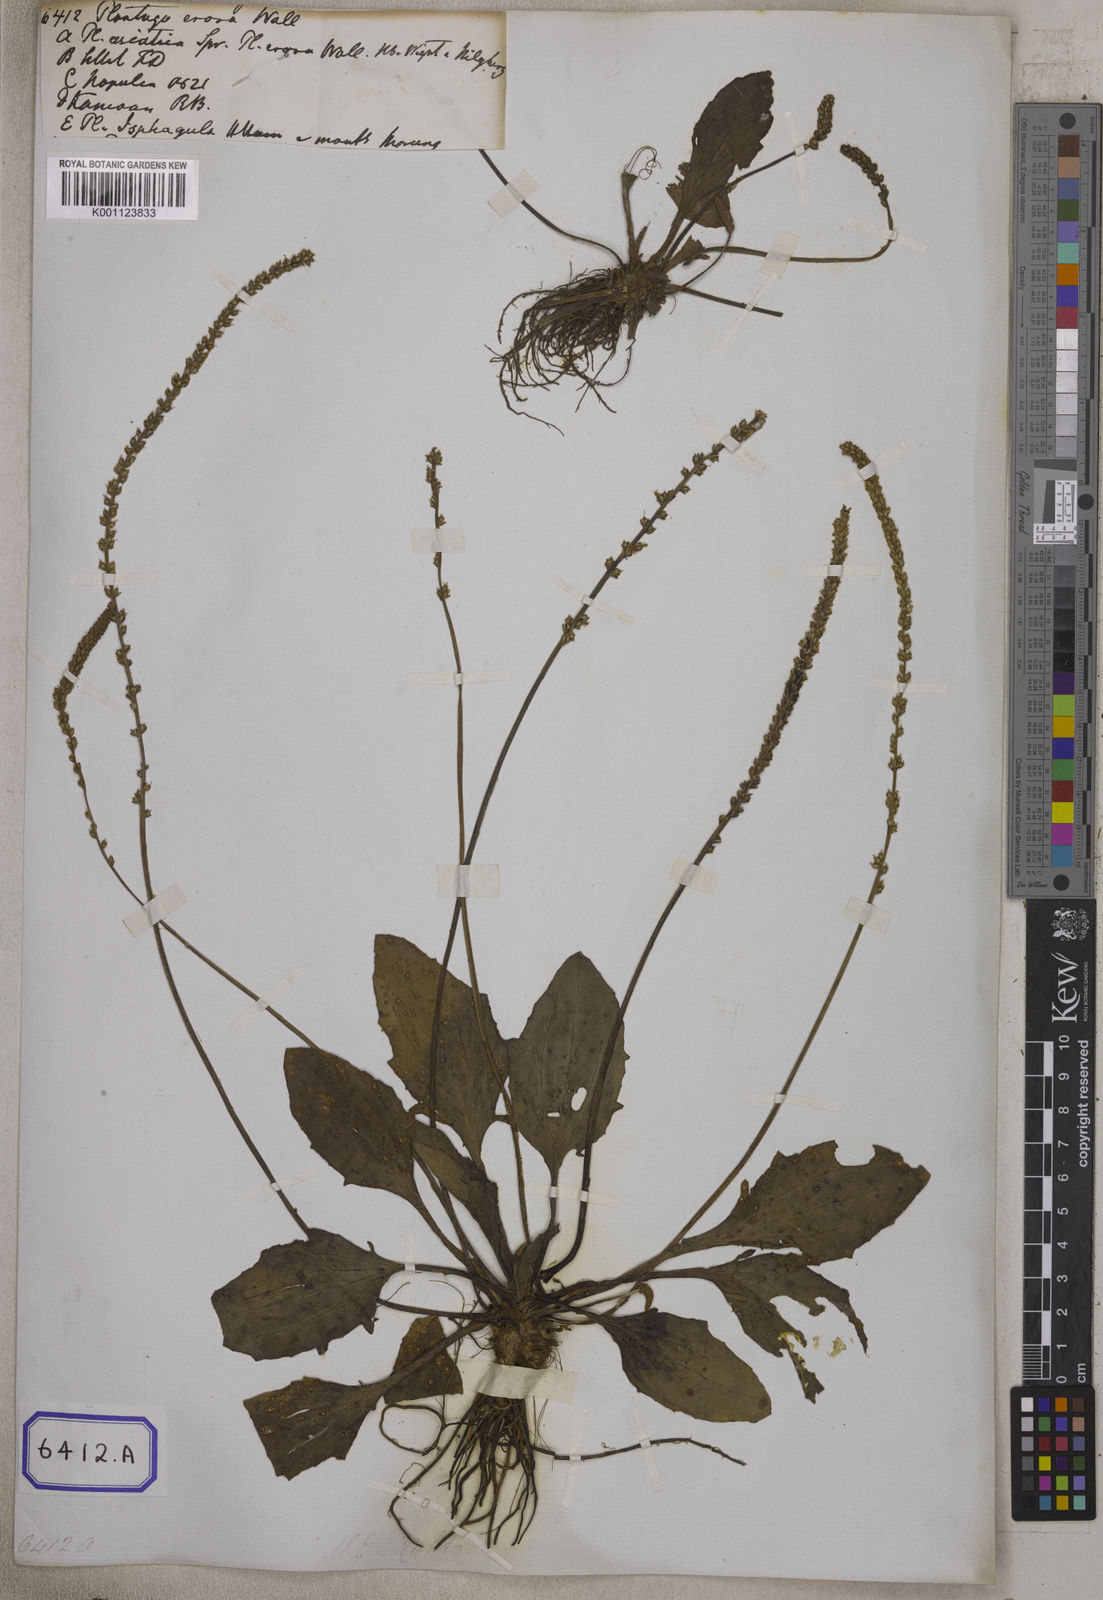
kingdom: Plantae
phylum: Tracheophyta
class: Magnoliopsida
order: Lamiales
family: Plantaginaceae
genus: Plantago
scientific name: Plantago
